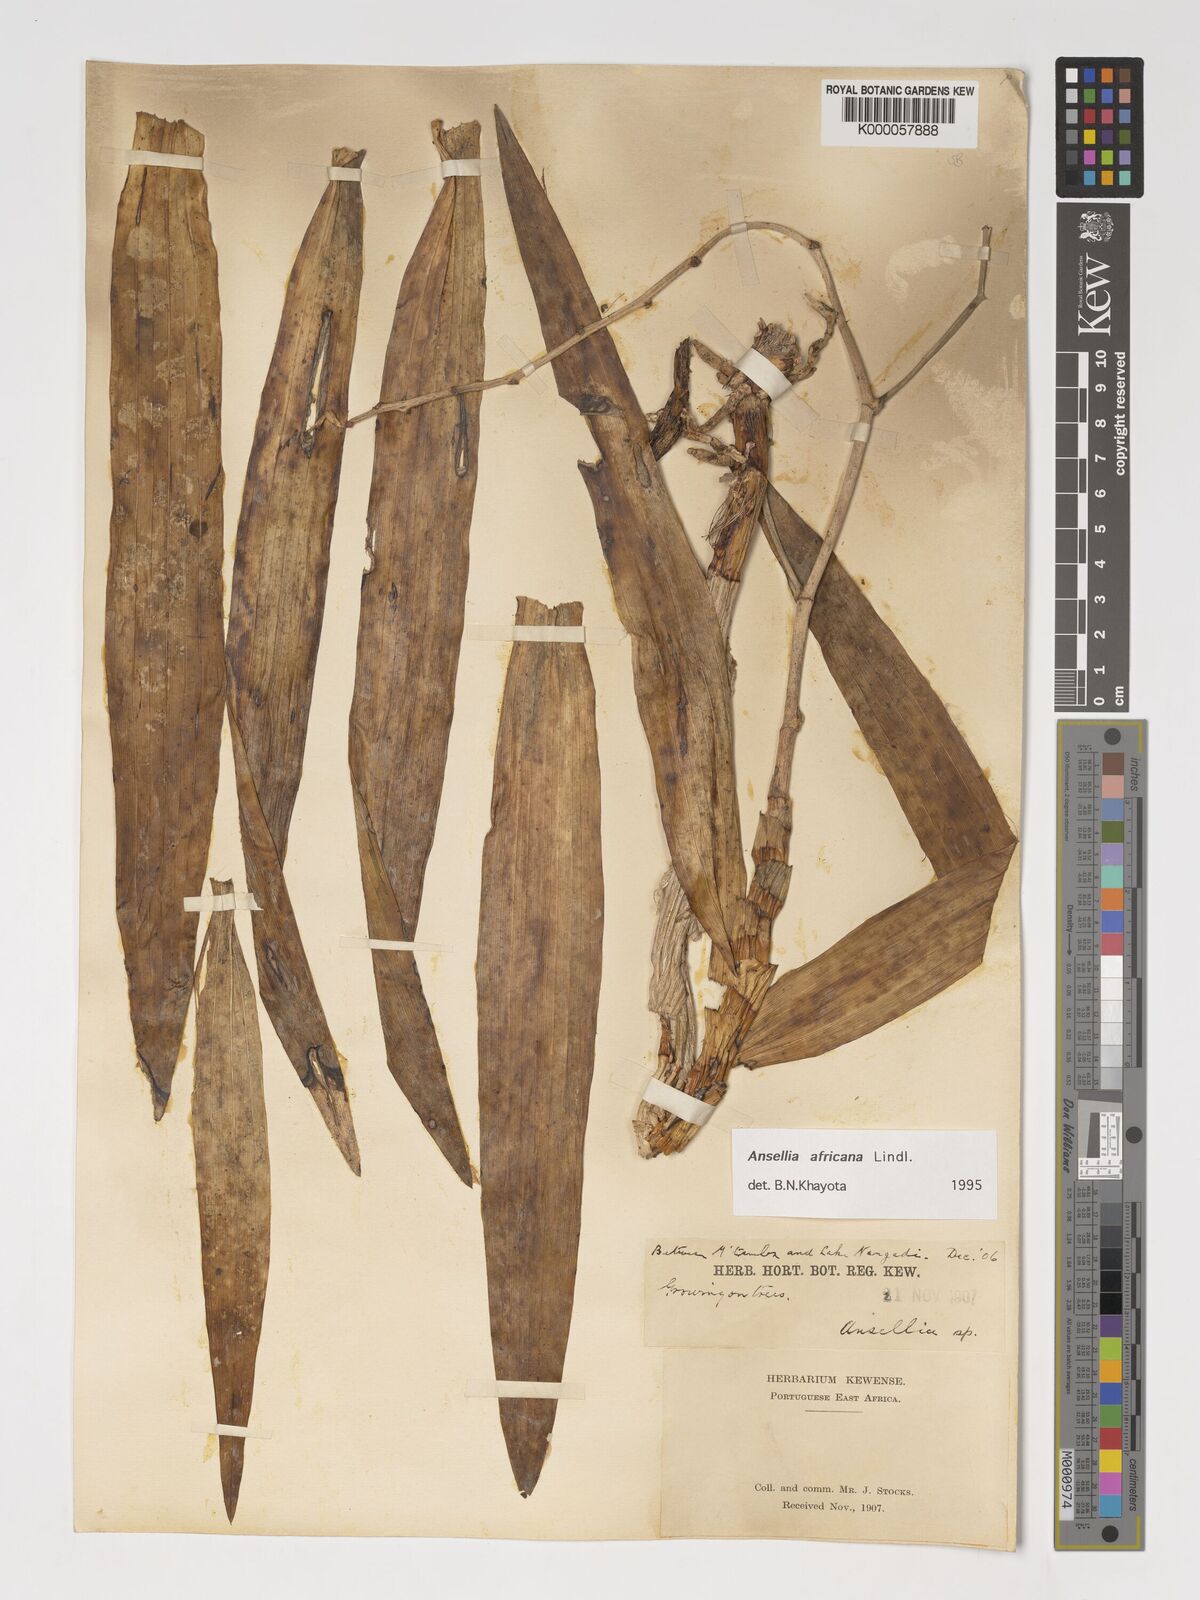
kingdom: Plantae
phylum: Tracheophyta
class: Liliopsida
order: Asparagales
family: Orchidaceae
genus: Ansellia
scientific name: Ansellia africana
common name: African ansellia
